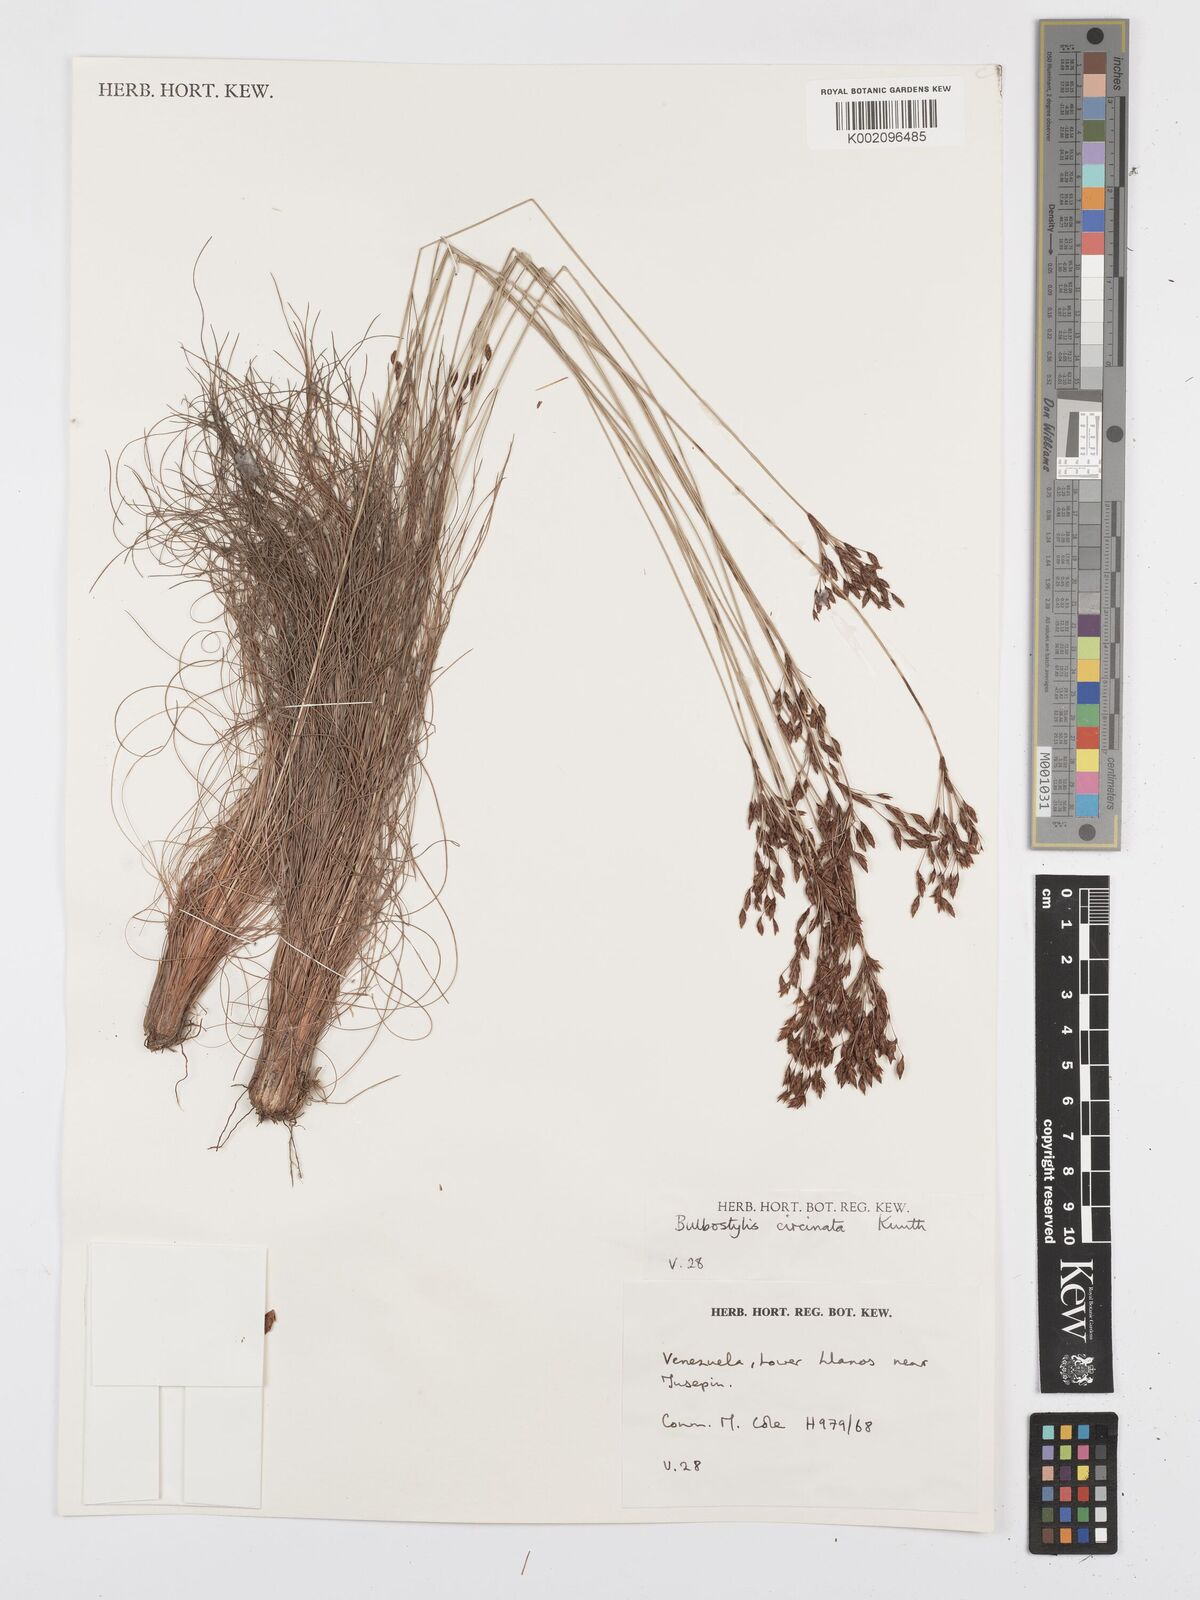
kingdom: Plantae
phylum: Tracheophyta
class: Liliopsida
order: Poales
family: Cyperaceae
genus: Bulbostylis
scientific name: Bulbostylis circinata
